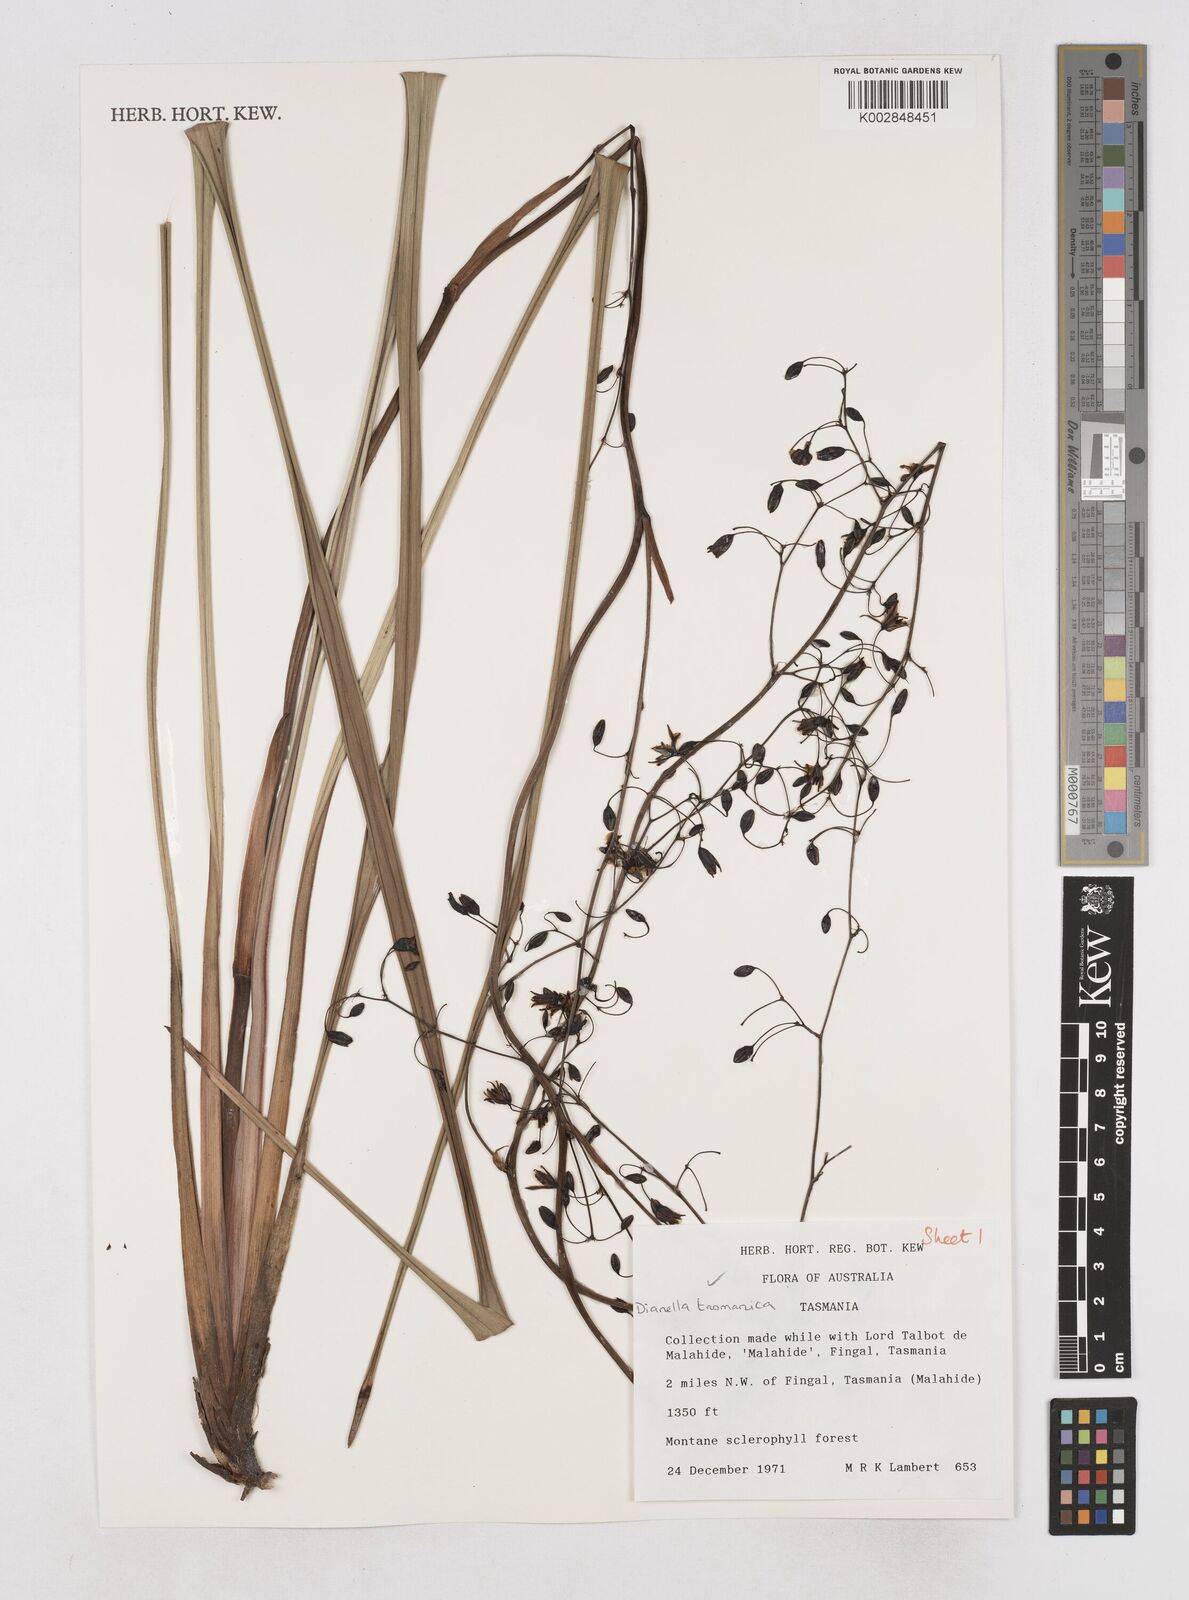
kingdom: Plantae
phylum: Tracheophyta
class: Liliopsida
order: Asparagales
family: Asphodelaceae
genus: Dianella
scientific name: Dianella tasmanica
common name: Tasman flax-lily
